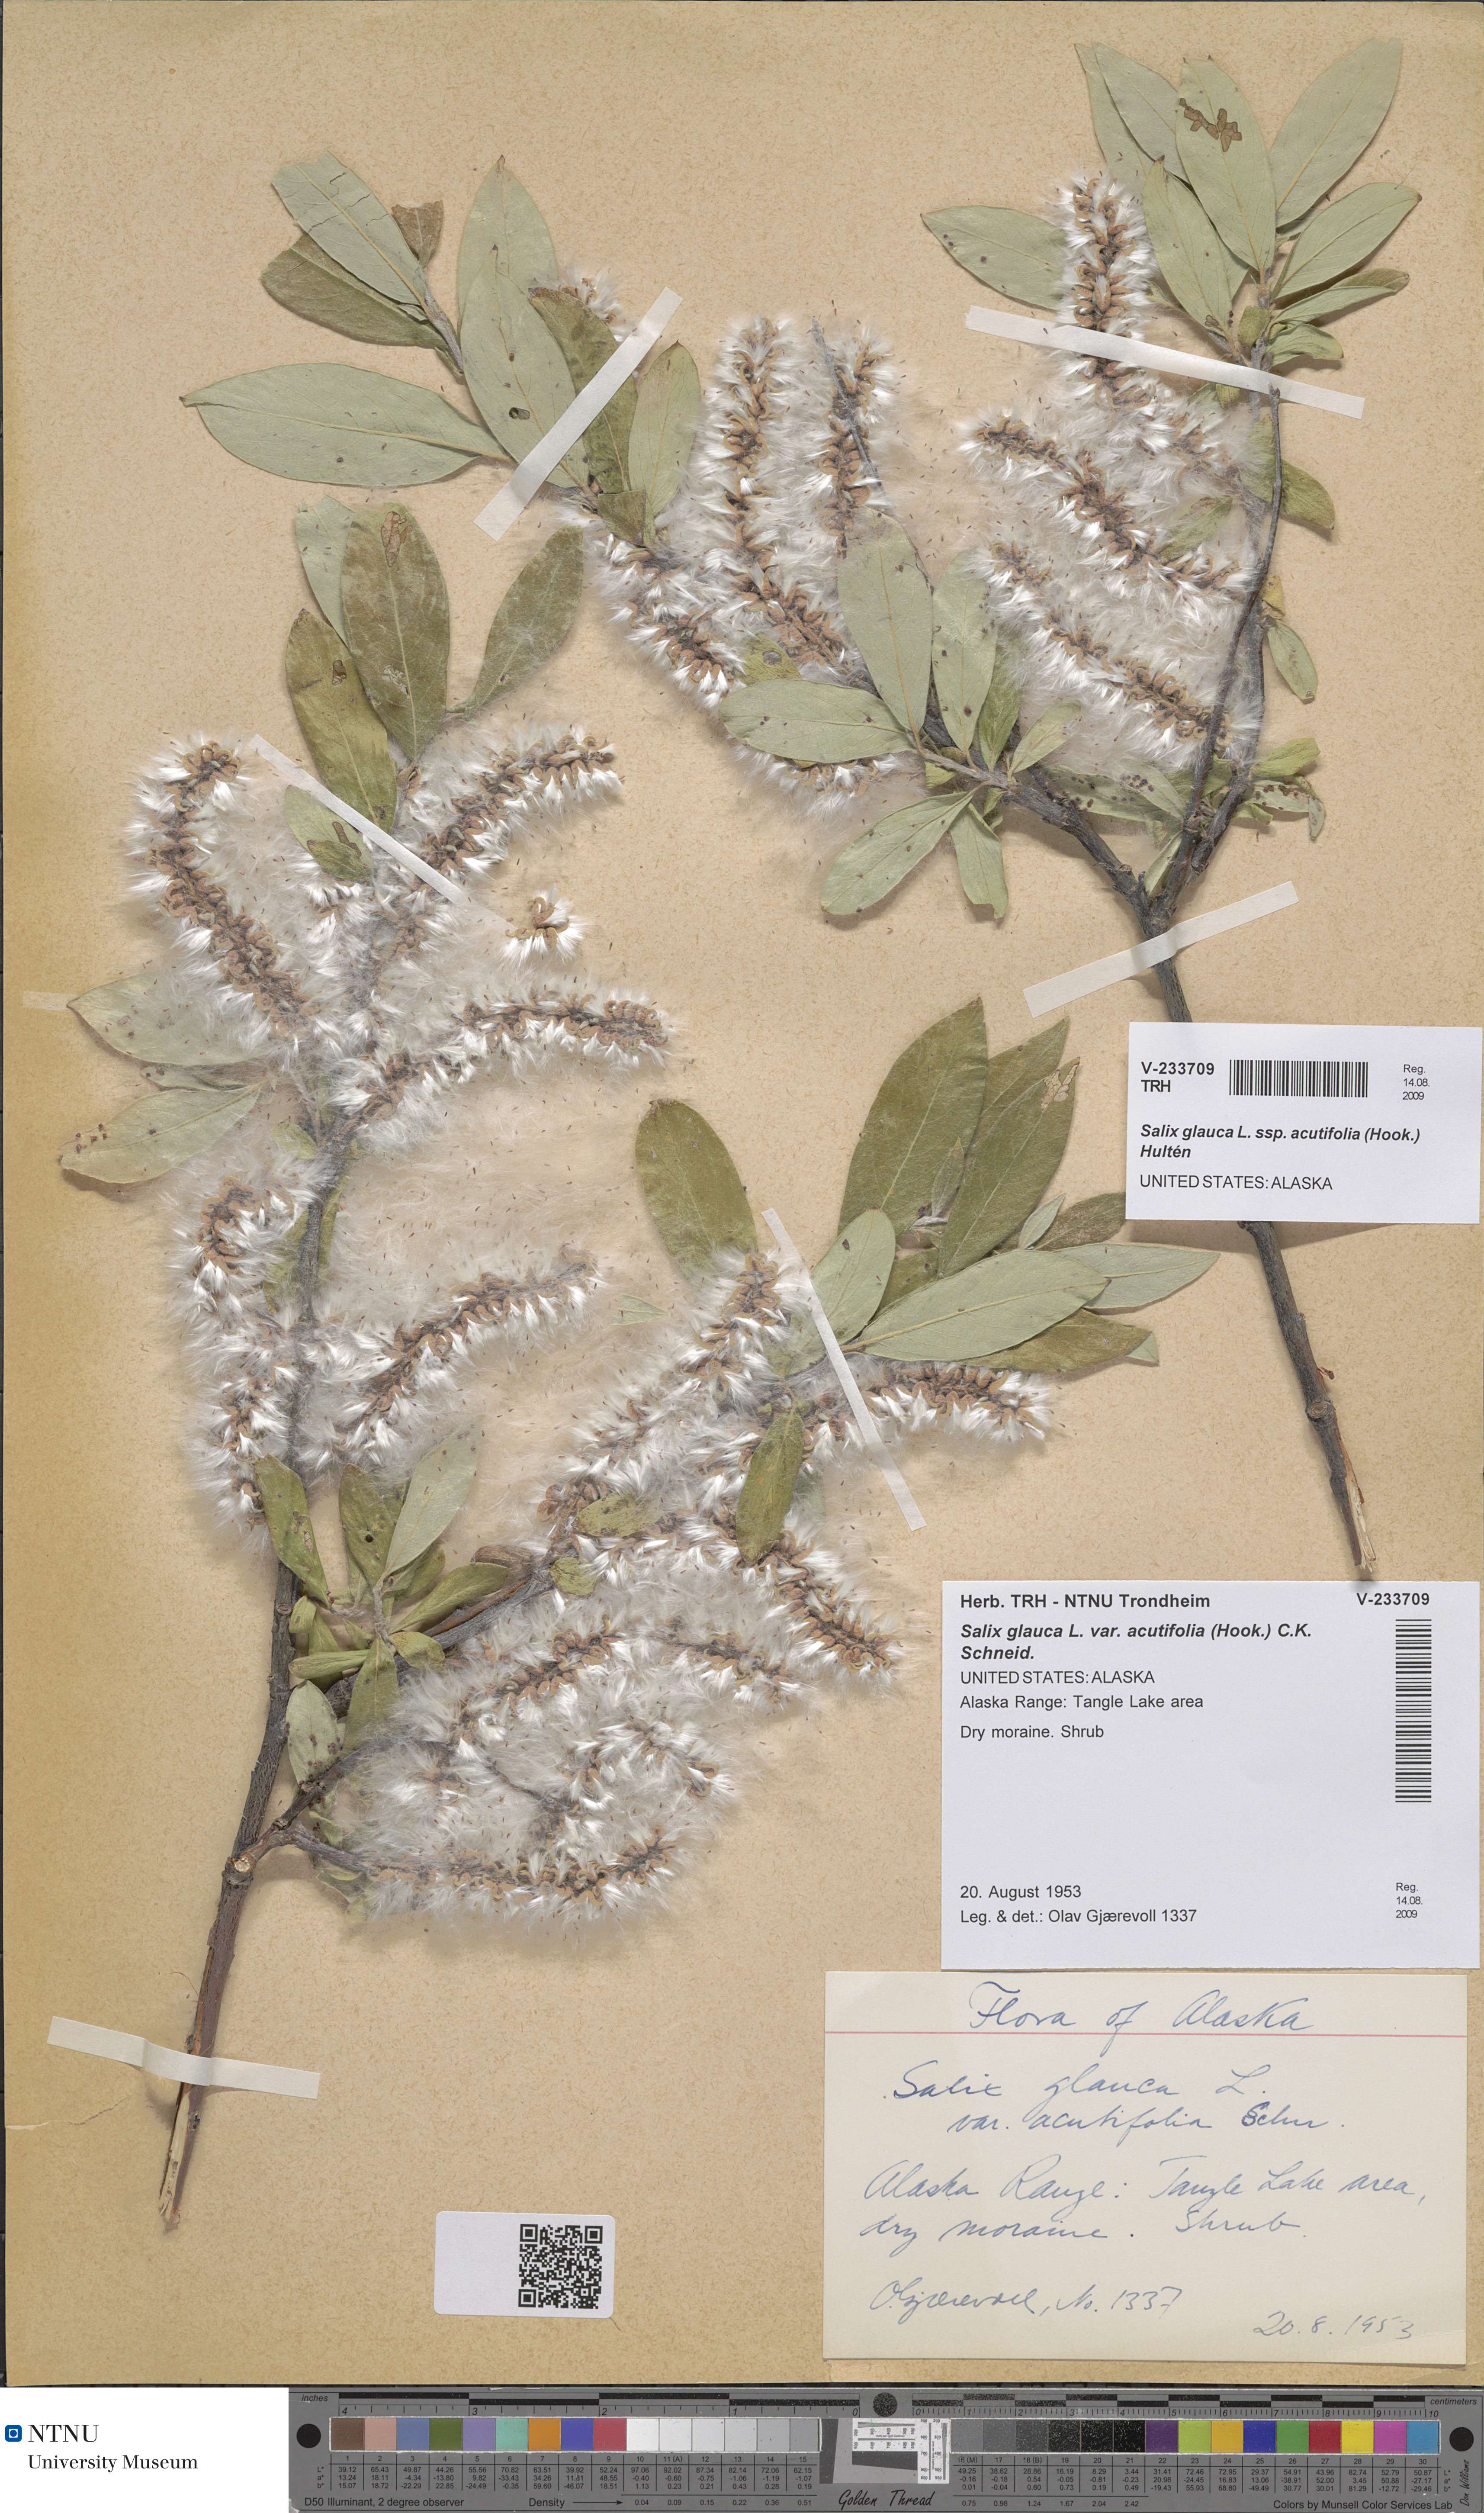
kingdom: Plantae
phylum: Tracheophyta
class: Magnoliopsida
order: Malpighiales
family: Salicaceae
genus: Salix
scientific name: Salix glauca
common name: Glaucous willow
